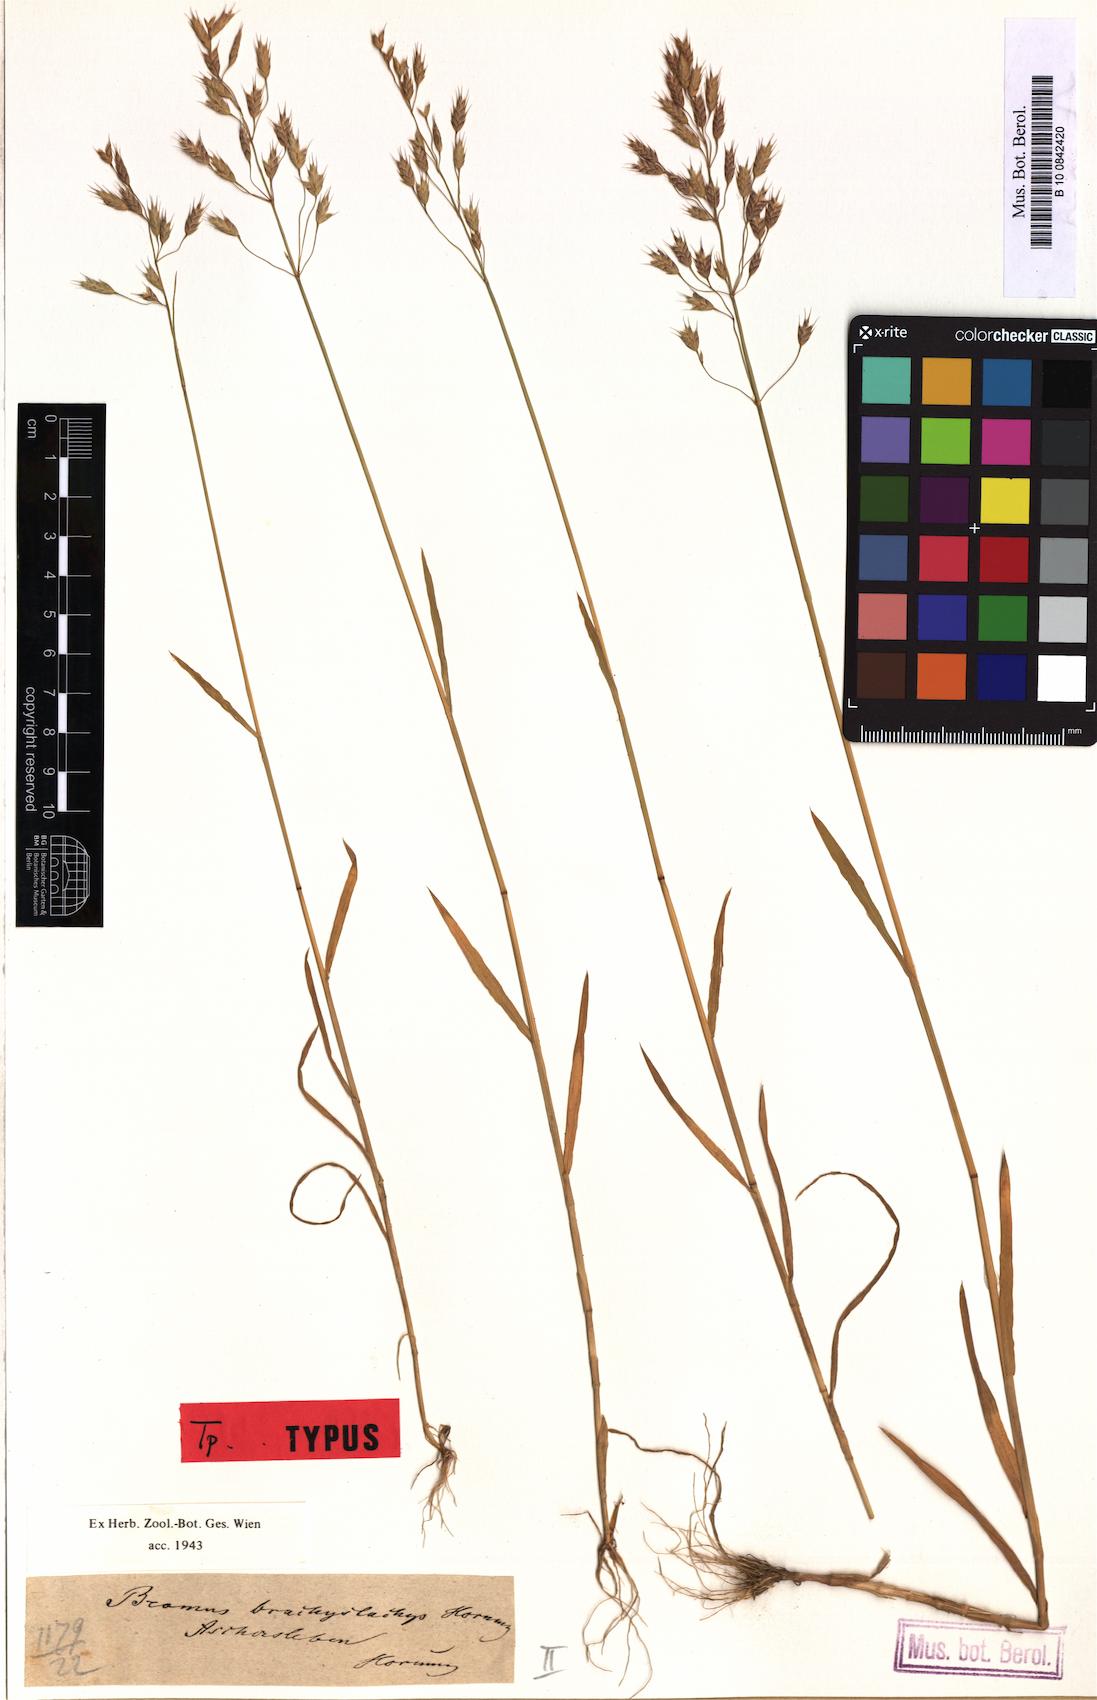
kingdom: Plantae
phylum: Tracheophyta
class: Liliopsida
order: Poales
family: Poaceae
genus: Bromus
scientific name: Bromus brachystachys
